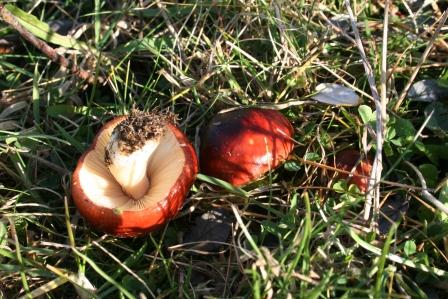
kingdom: Fungi
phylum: Basidiomycota
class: Agaricomycetes
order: Russulales
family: Russulaceae
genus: Russula
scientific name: Russula subrubens
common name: pile-skørhat
